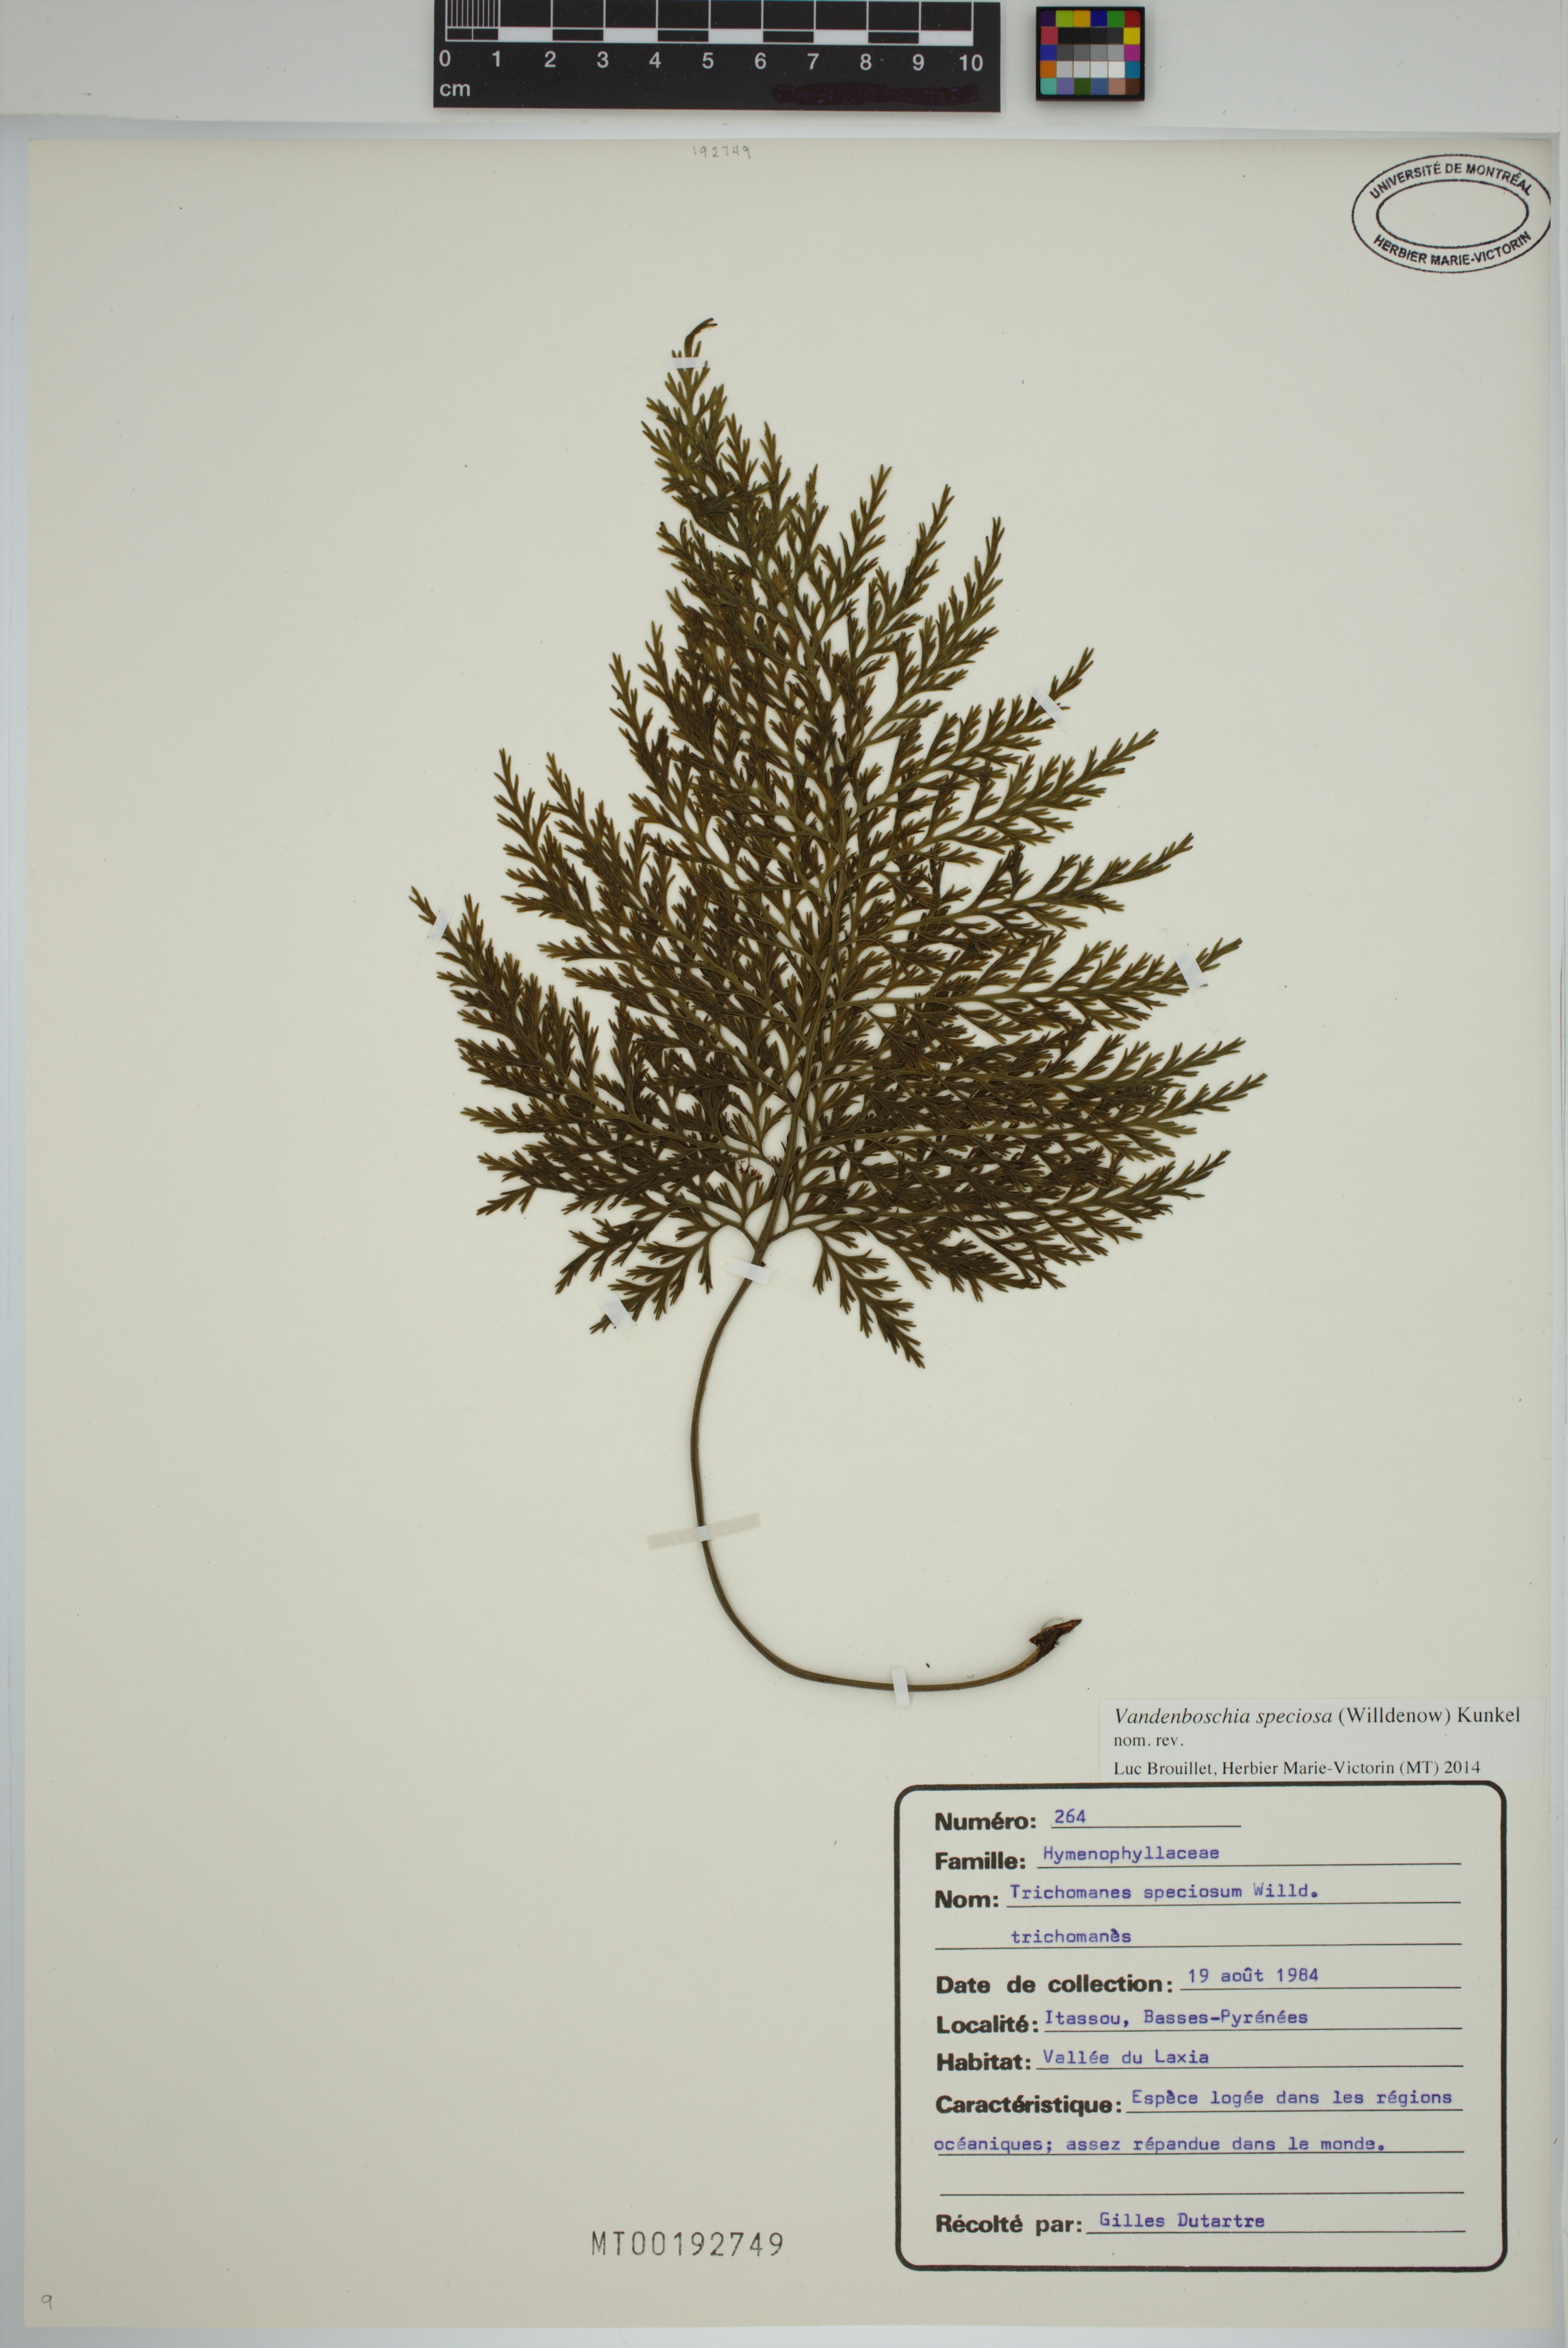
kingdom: Plantae
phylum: Tracheophyta
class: Polypodiopsida
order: Hymenophyllales
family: Hymenophyllaceae
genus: Vandenboschia
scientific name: Vandenboschia speciosa
